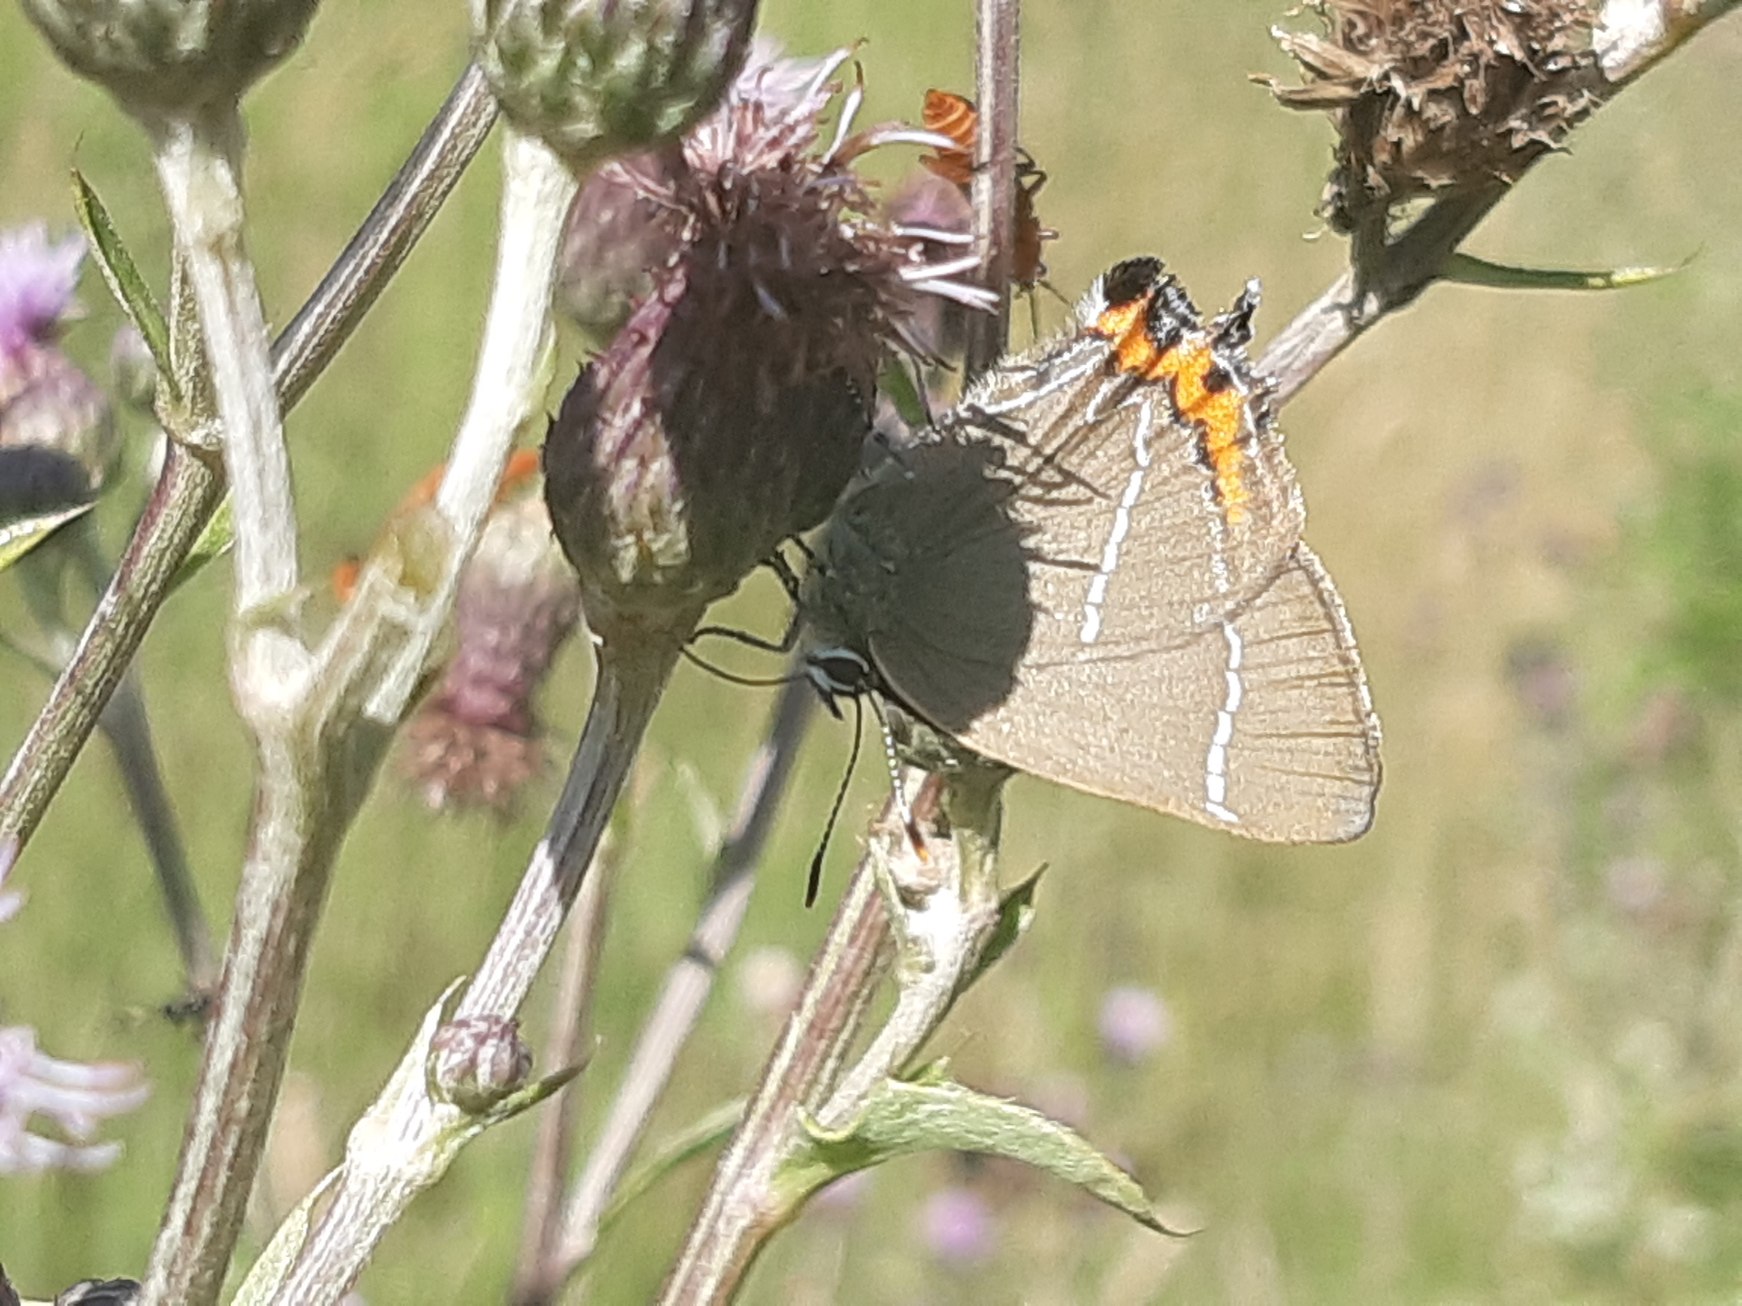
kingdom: Animalia
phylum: Arthropoda
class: Insecta
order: Lepidoptera
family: Lycaenidae
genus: Satyrium
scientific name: Satyrium w-album
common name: Det hvide W
